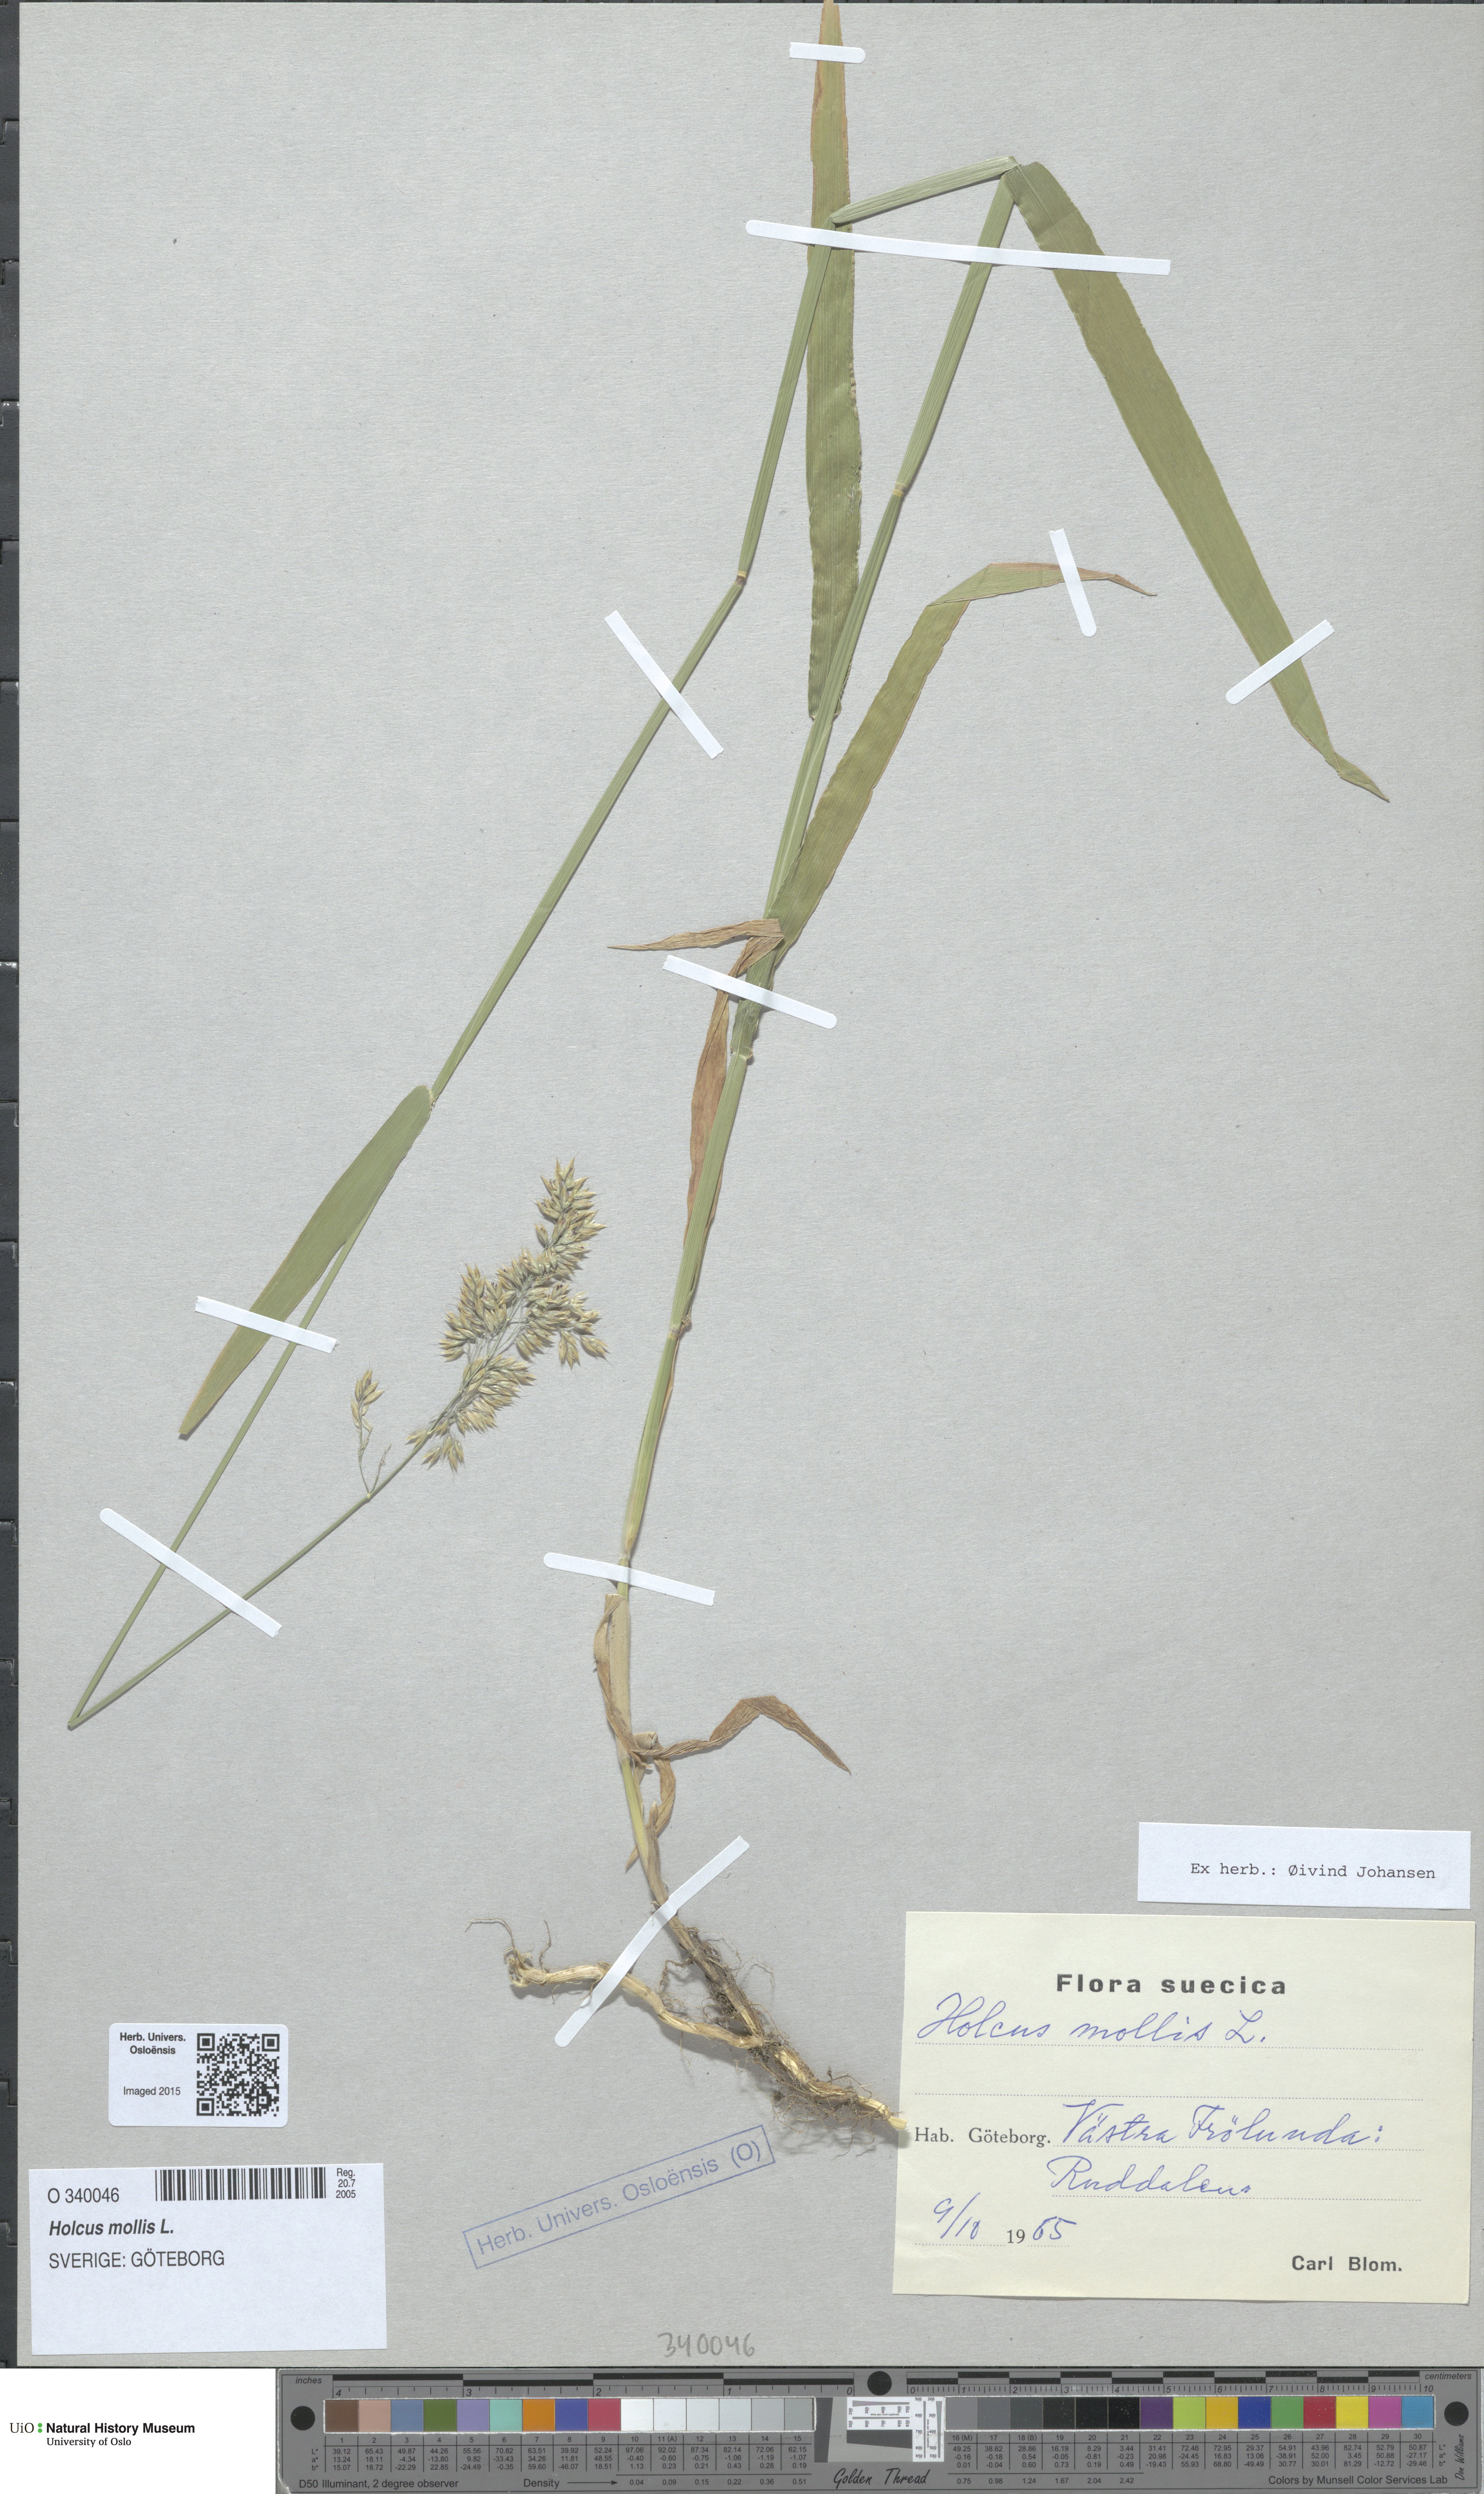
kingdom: Plantae
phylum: Tracheophyta
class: Liliopsida
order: Poales
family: Poaceae
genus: Holcus
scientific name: Holcus mollis
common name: Creeping velvetgrass
